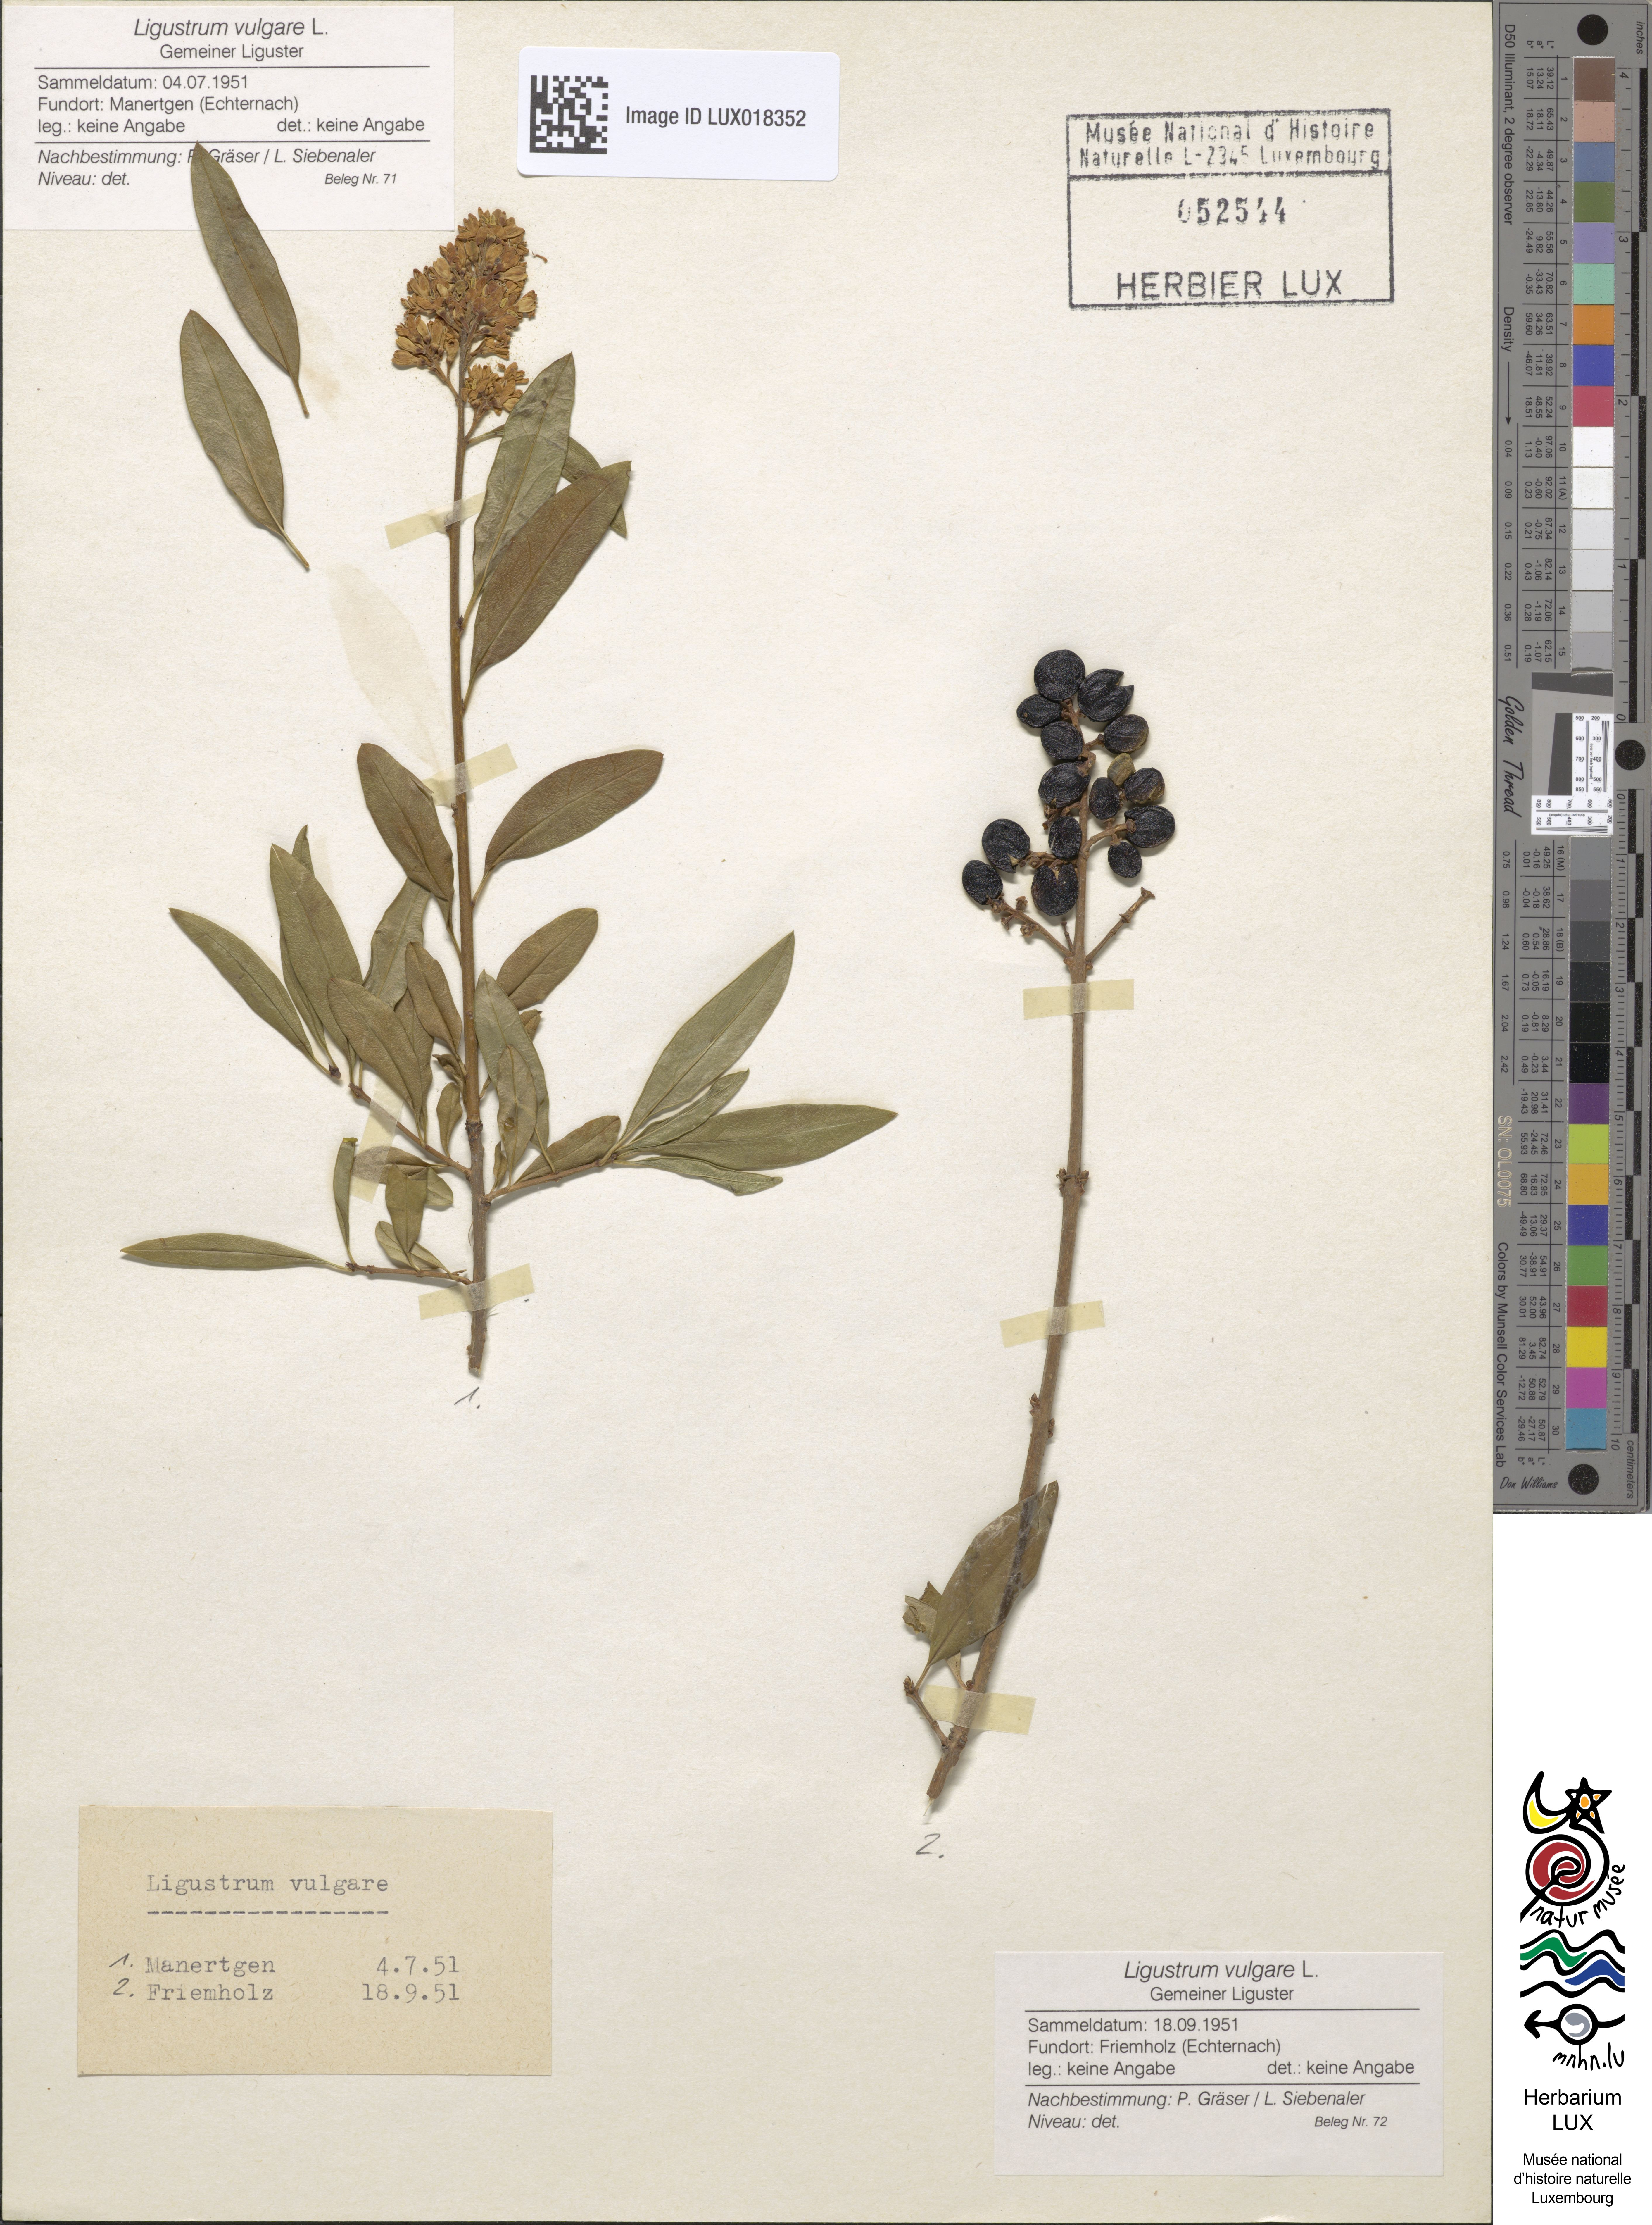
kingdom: Plantae
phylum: Tracheophyta
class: Magnoliopsida
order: Lamiales
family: Oleaceae
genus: Ligustrum
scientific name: Ligustrum vulgare
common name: Wild privet
